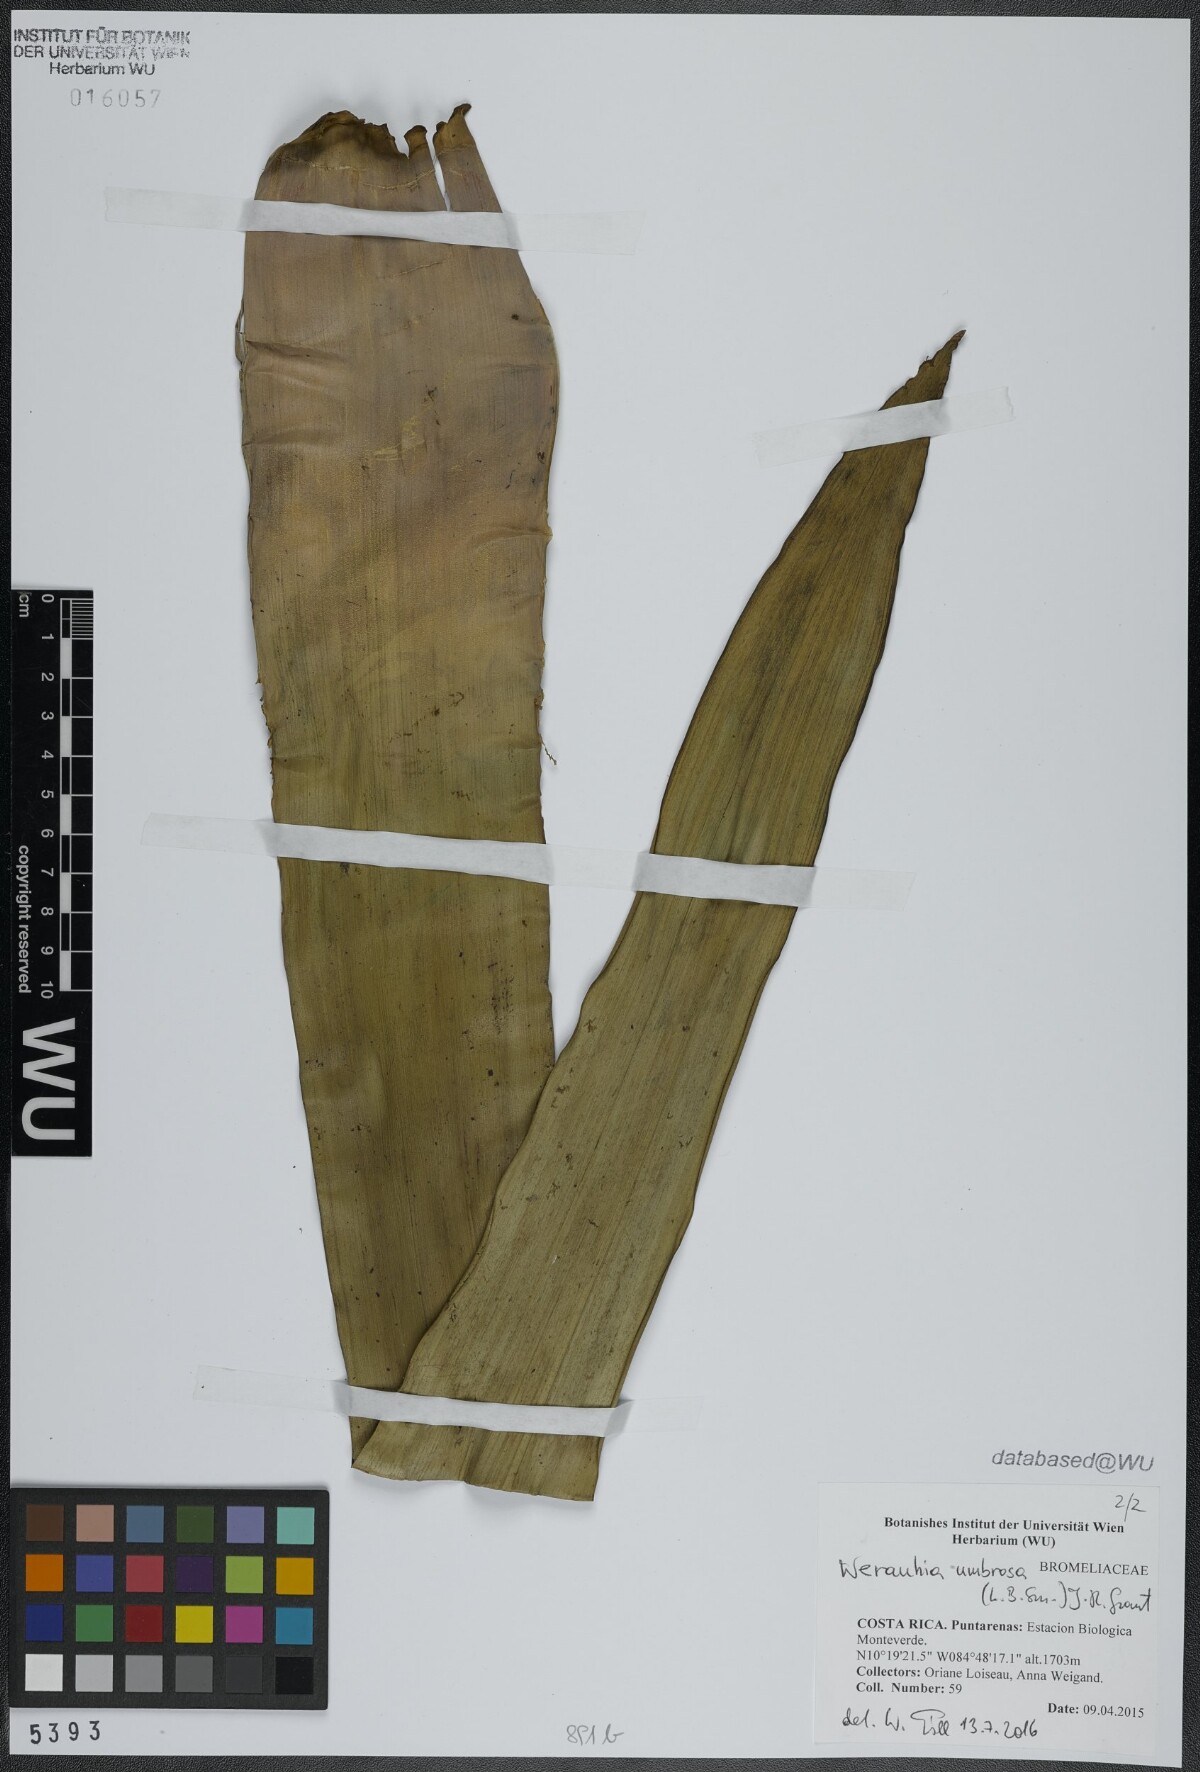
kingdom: Plantae
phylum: Tracheophyta
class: Liliopsida
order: Poales
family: Bromeliaceae
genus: Werauhia
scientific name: Werauhia umbrosa
